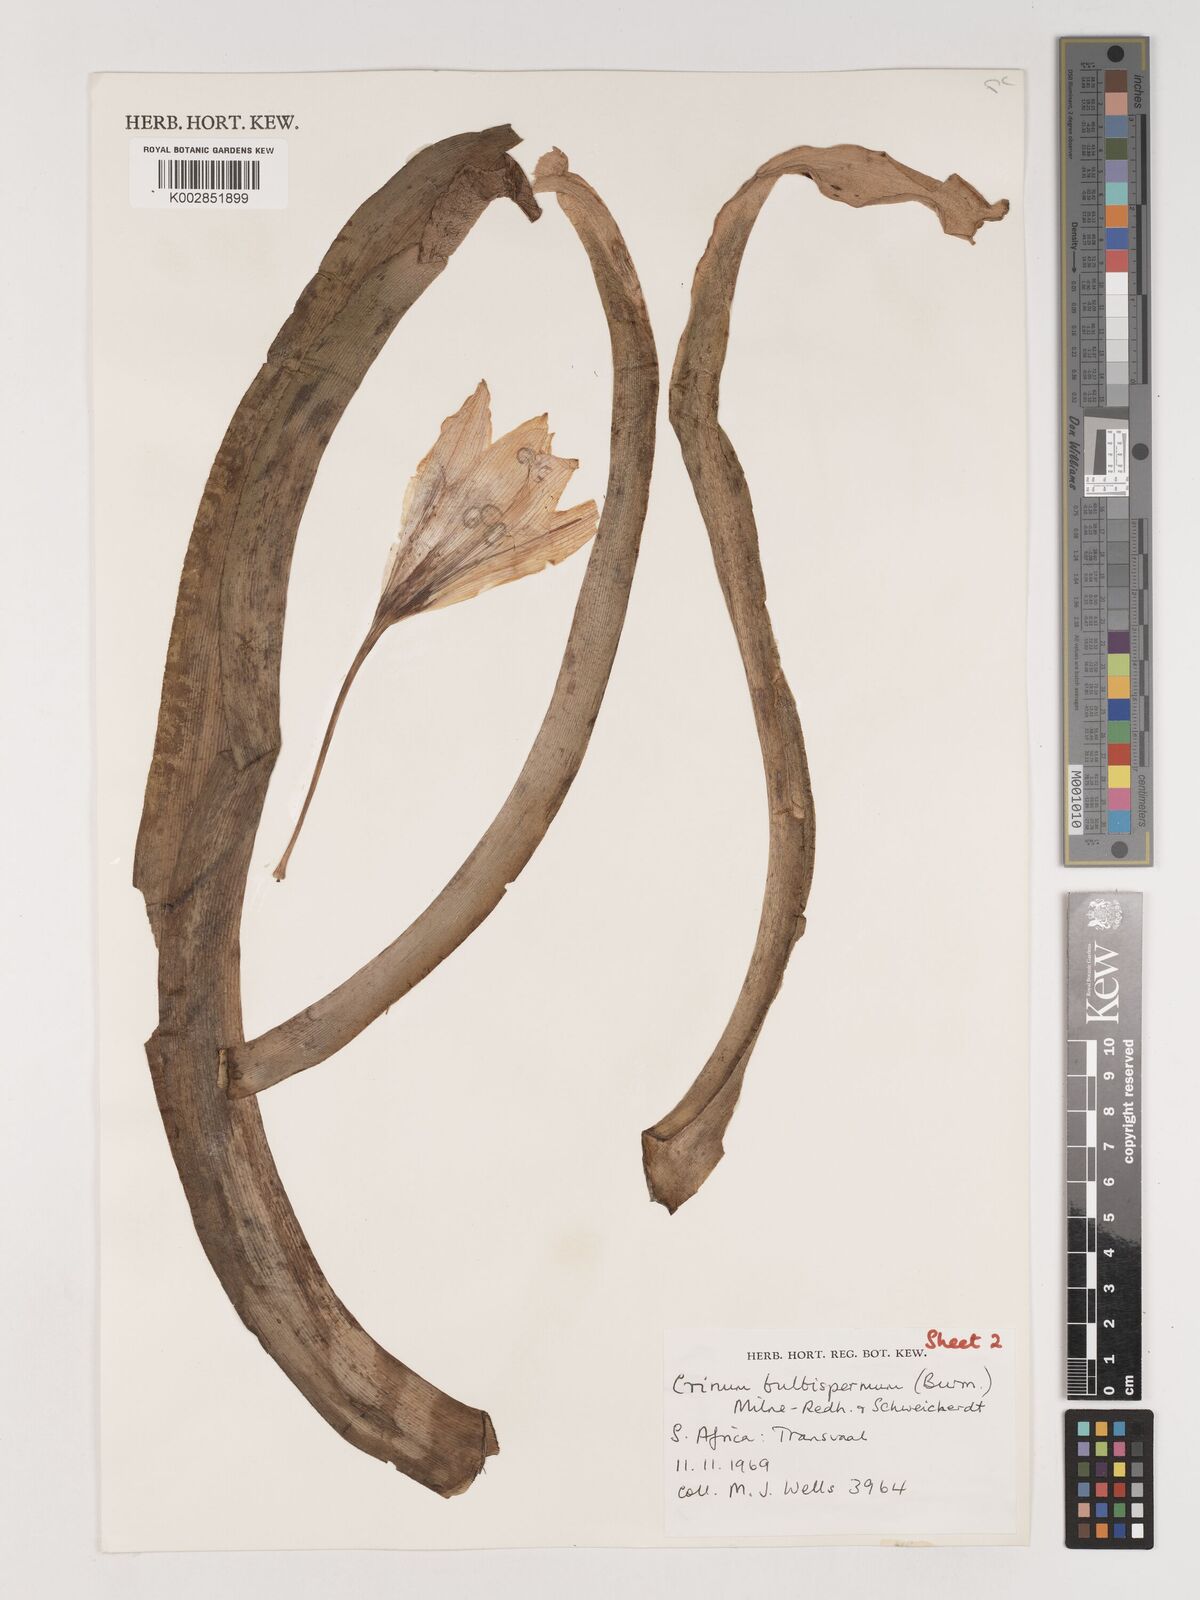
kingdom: Plantae
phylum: Tracheophyta
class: Liliopsida
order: Asparagales
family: Amaryllidaceae
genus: Crinum
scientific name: Crinum bulbispermum
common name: Hardy swamplily
